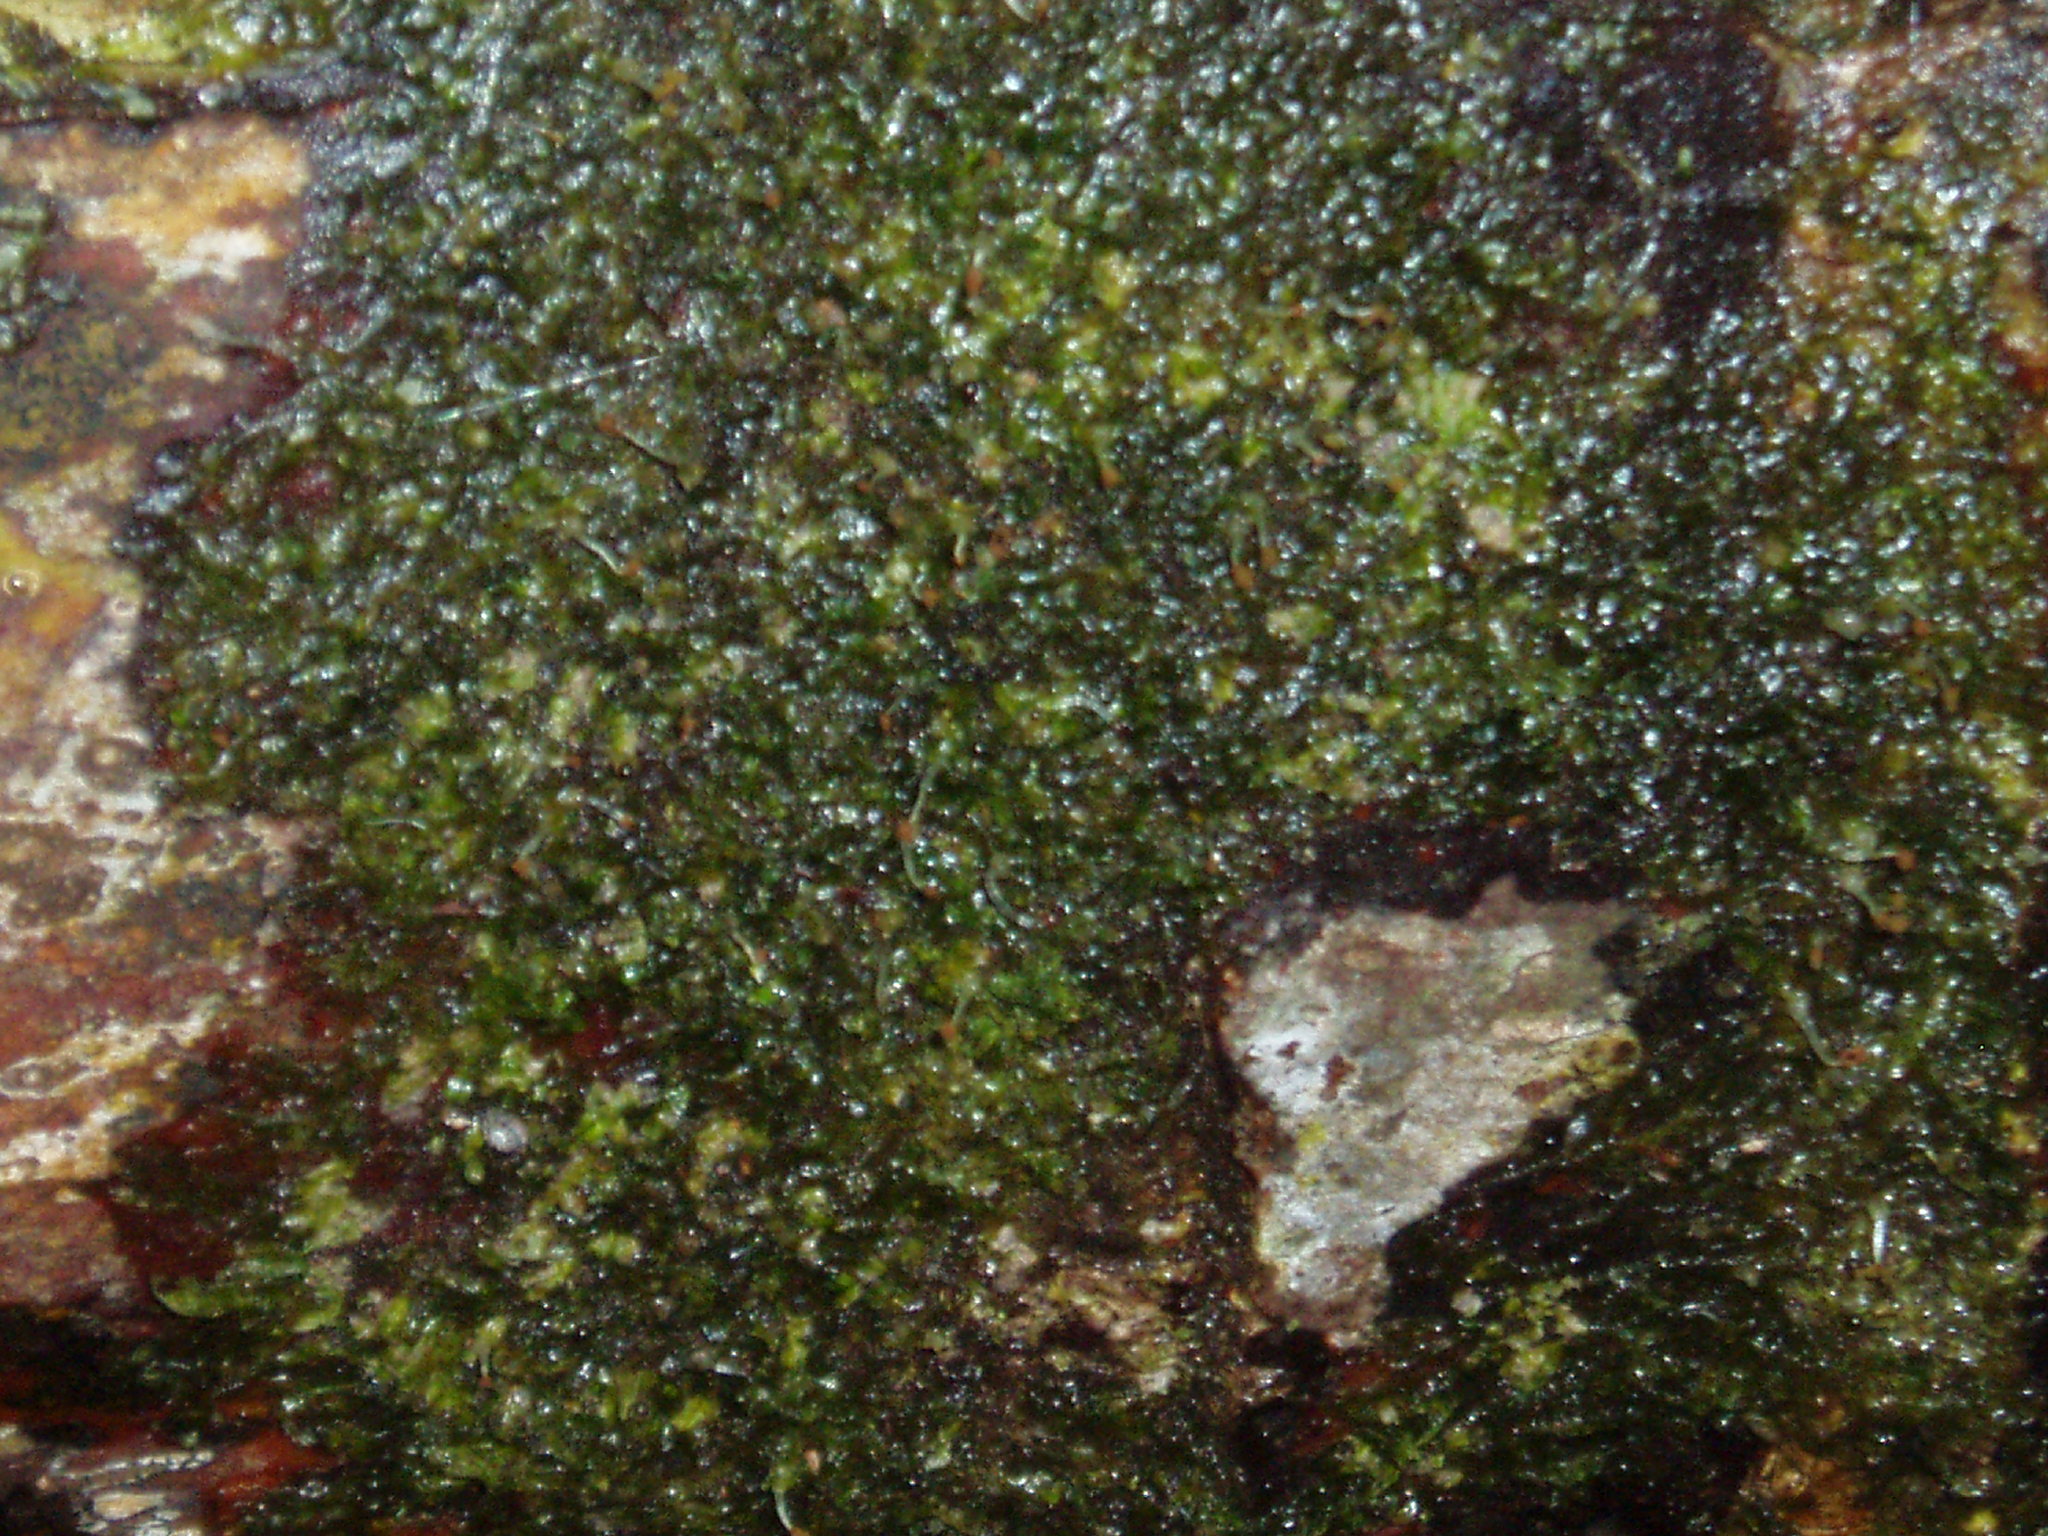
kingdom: Plantae
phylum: Marchantiophyta
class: Jungermanniopsida
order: Metzgeriales
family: Metzgeriaceae
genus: Metzgeria
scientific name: Metzgeria furcata
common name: Forked veilwort
